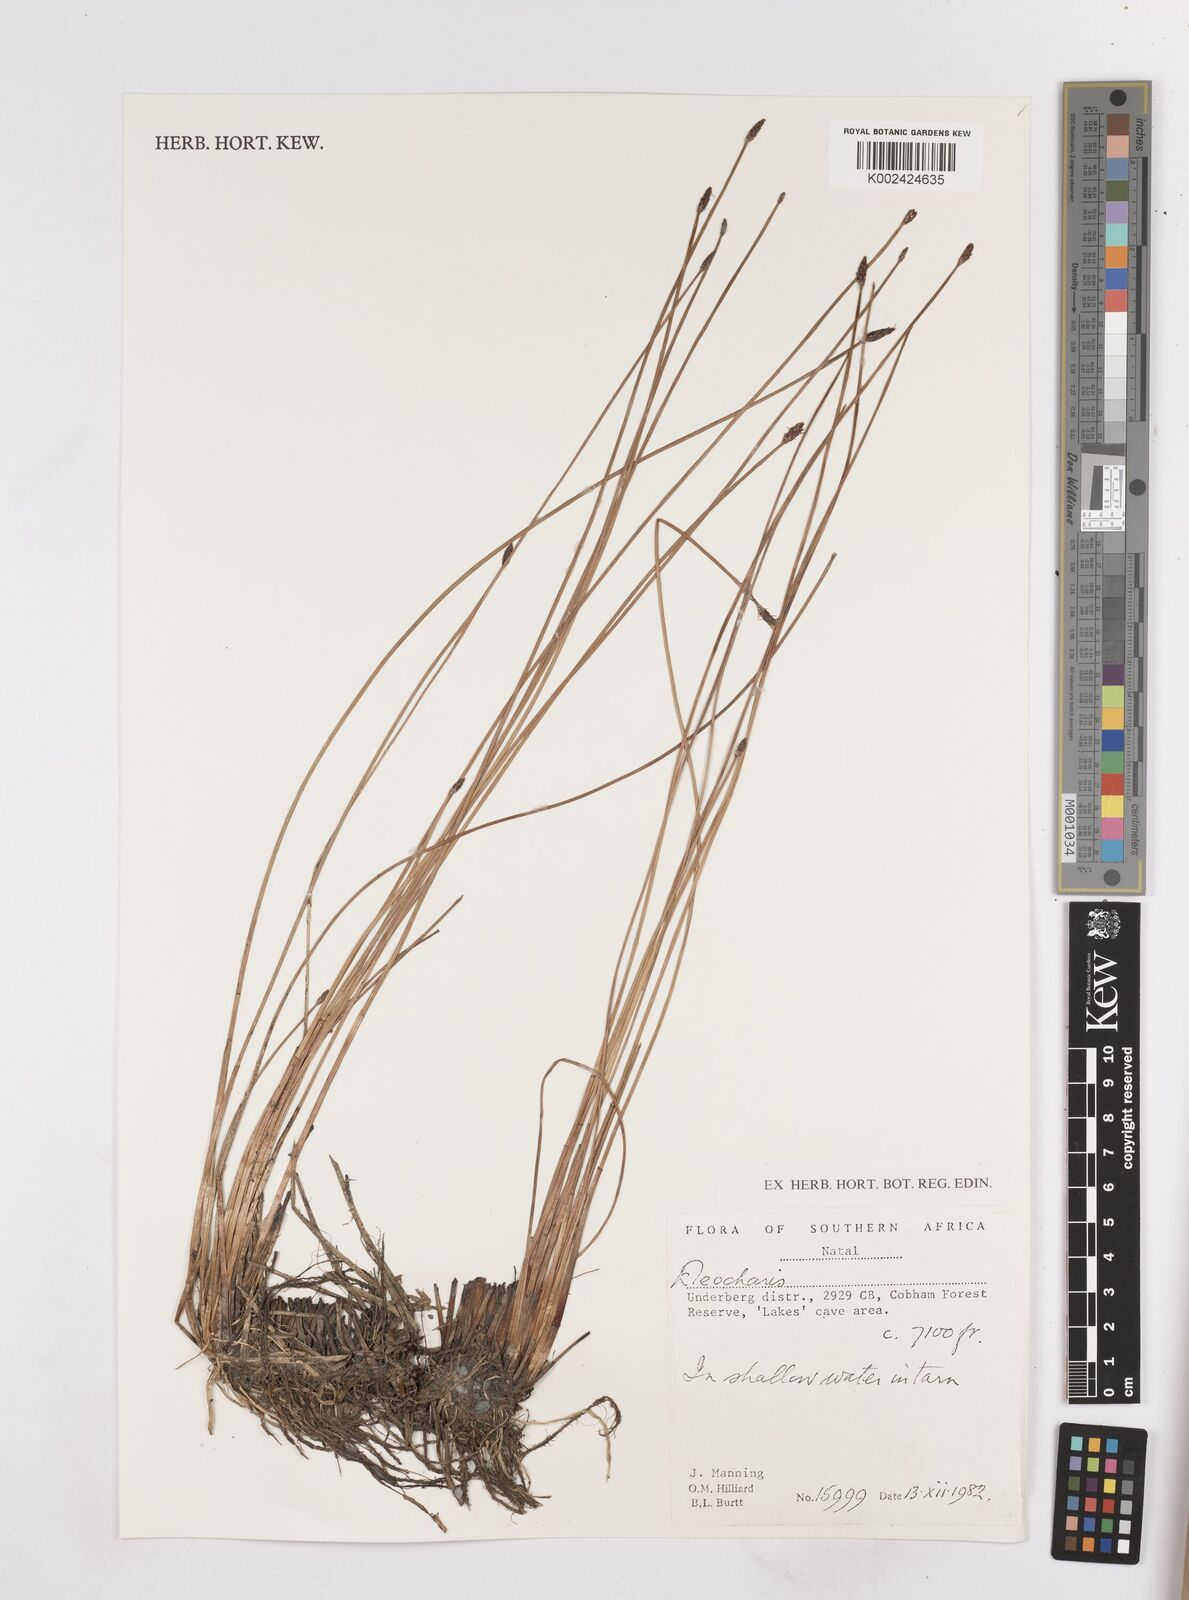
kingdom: Plantae
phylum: Tracheophyta
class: Liliopsida
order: Poales
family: Cyperaceae
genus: Eleocharis
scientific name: Eleocharis
